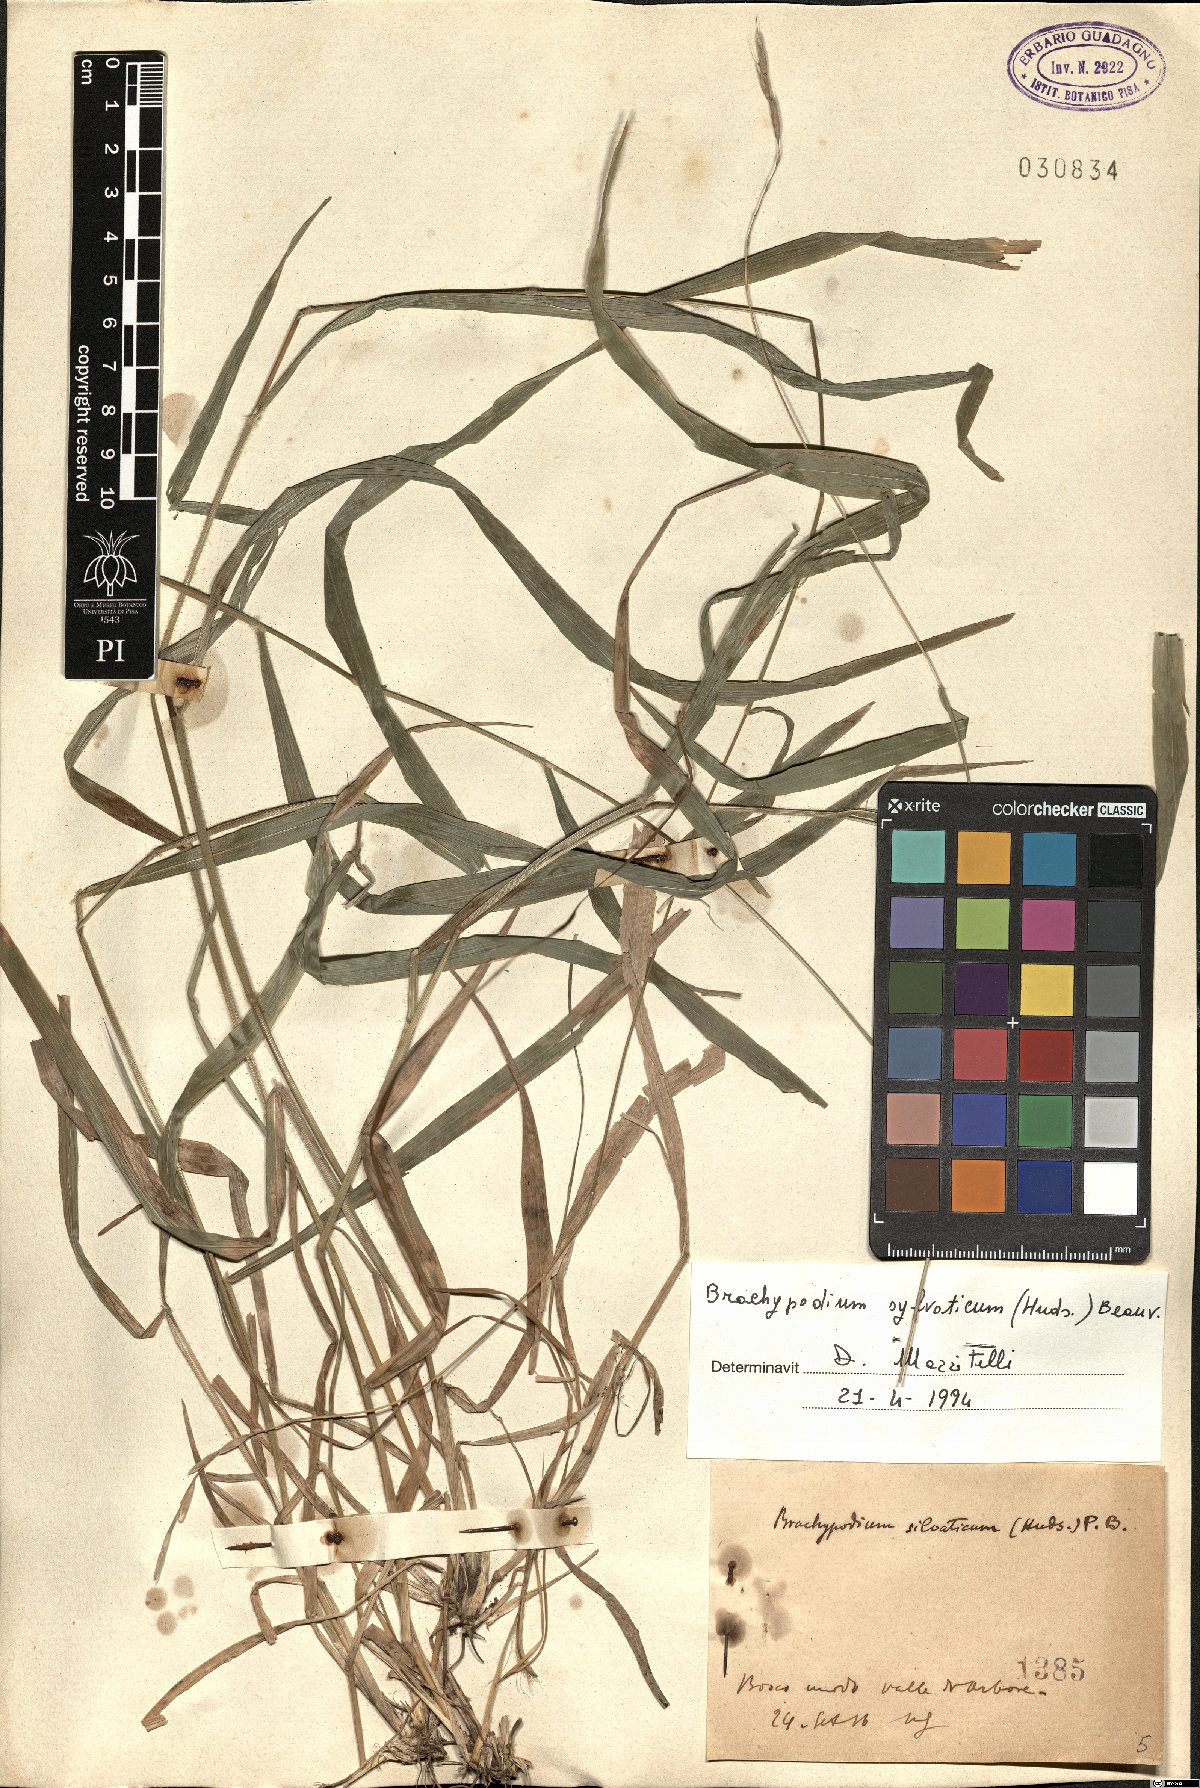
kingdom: Plantae
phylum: Tracheophyta
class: Liliopsida
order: Poales
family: Poaceae
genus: Brachypodium
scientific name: Brachypodium sylvaticum
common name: False-brome
